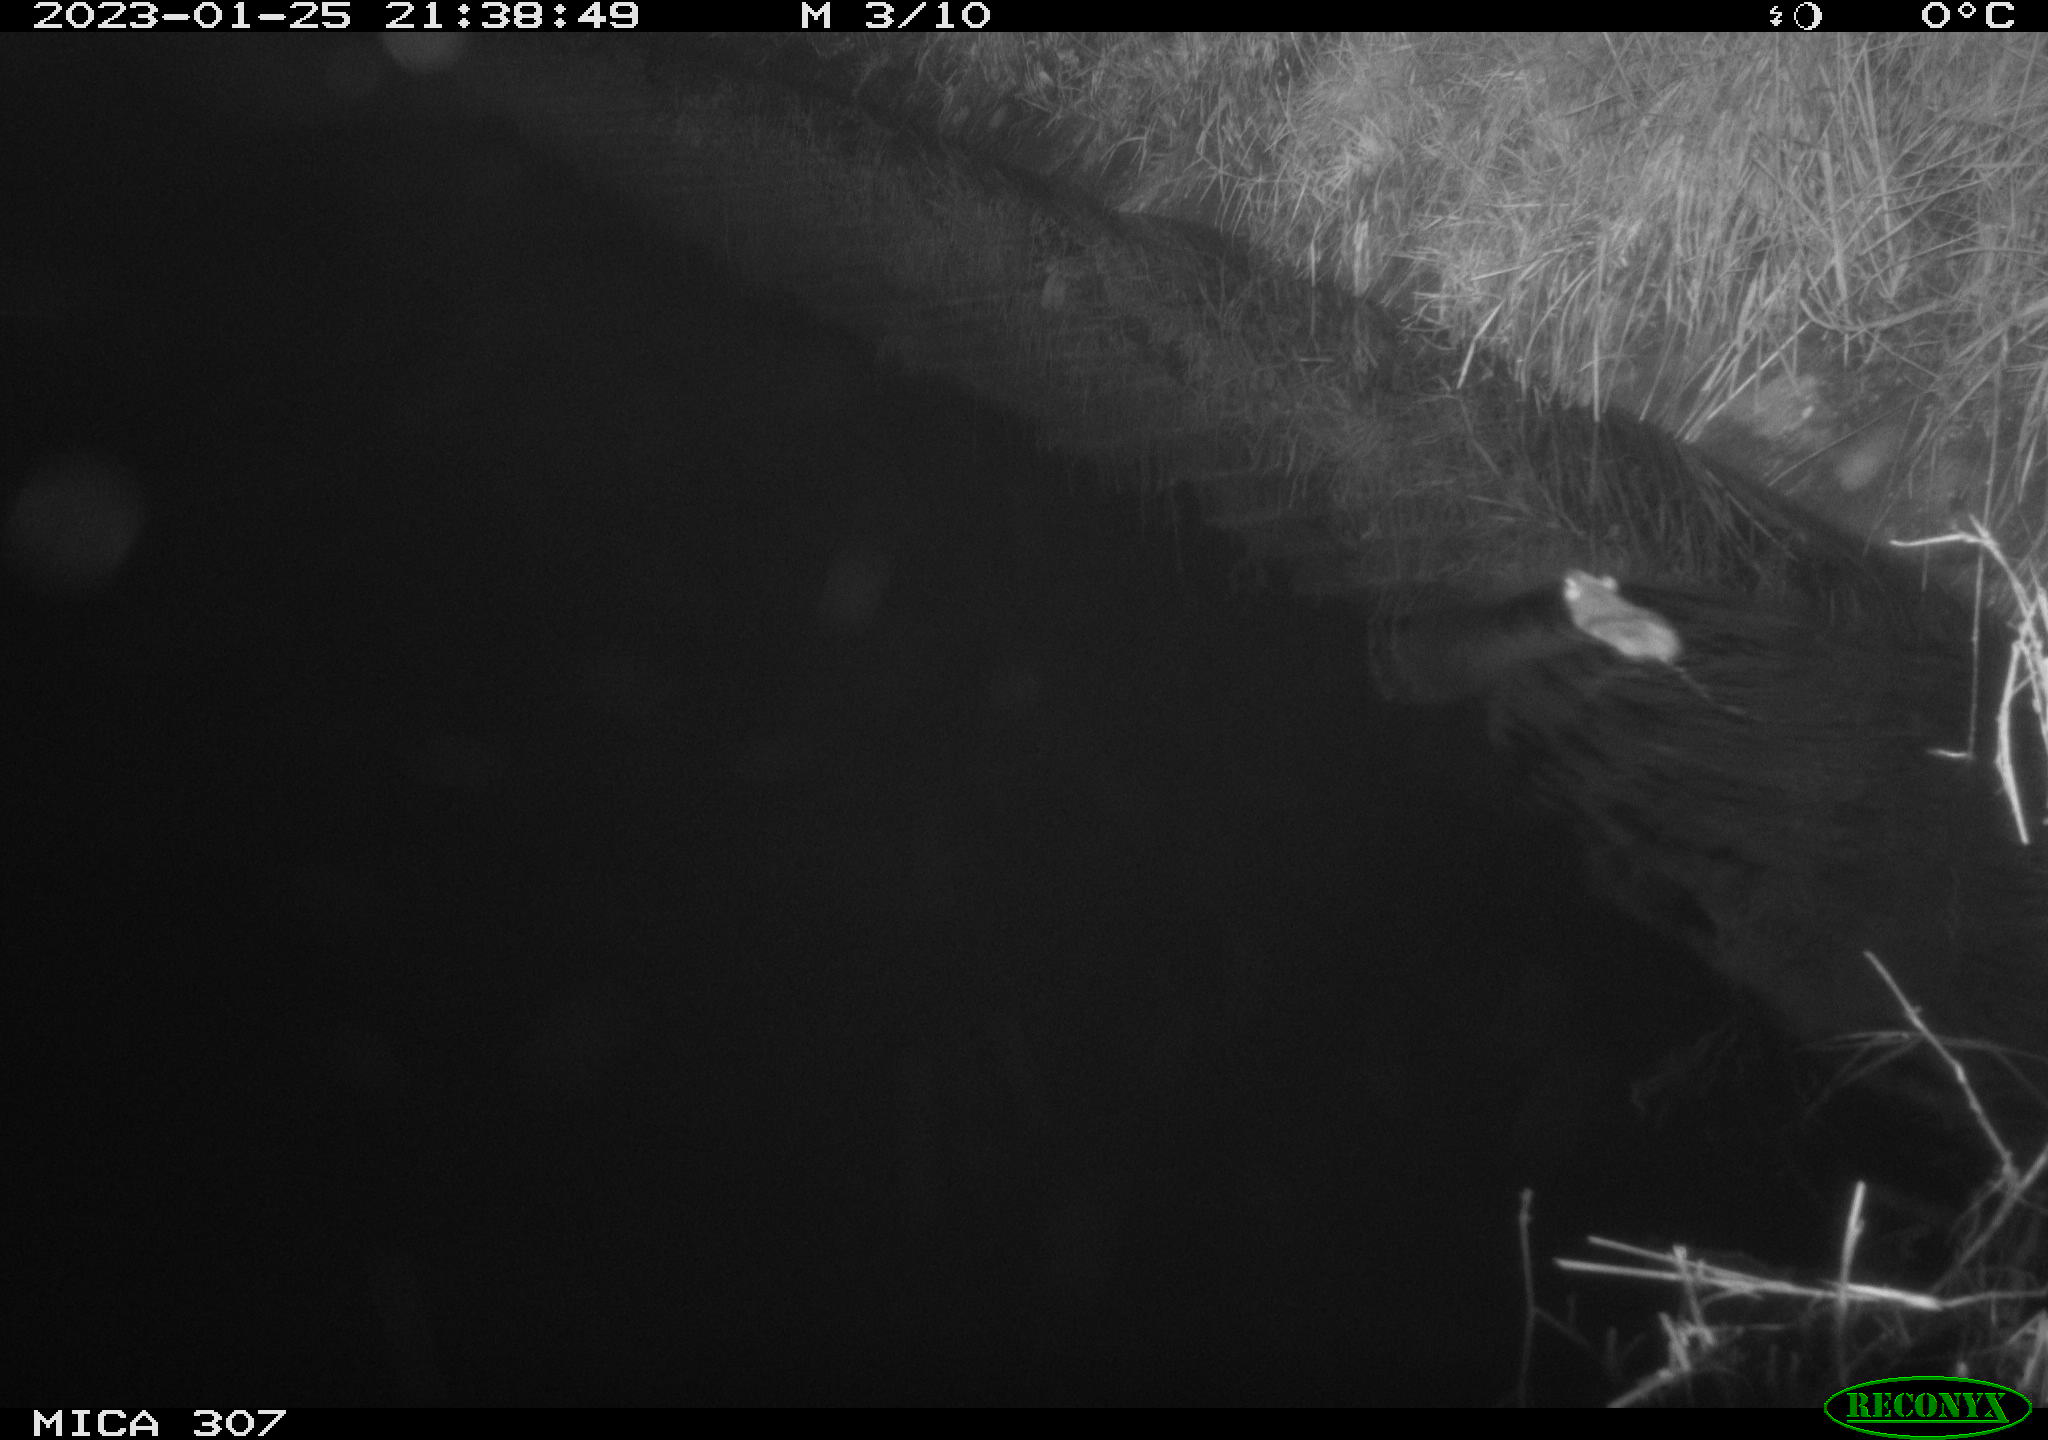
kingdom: Animalia
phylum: Chordata
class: Mammalia
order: Rodentia
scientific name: Rodentia
